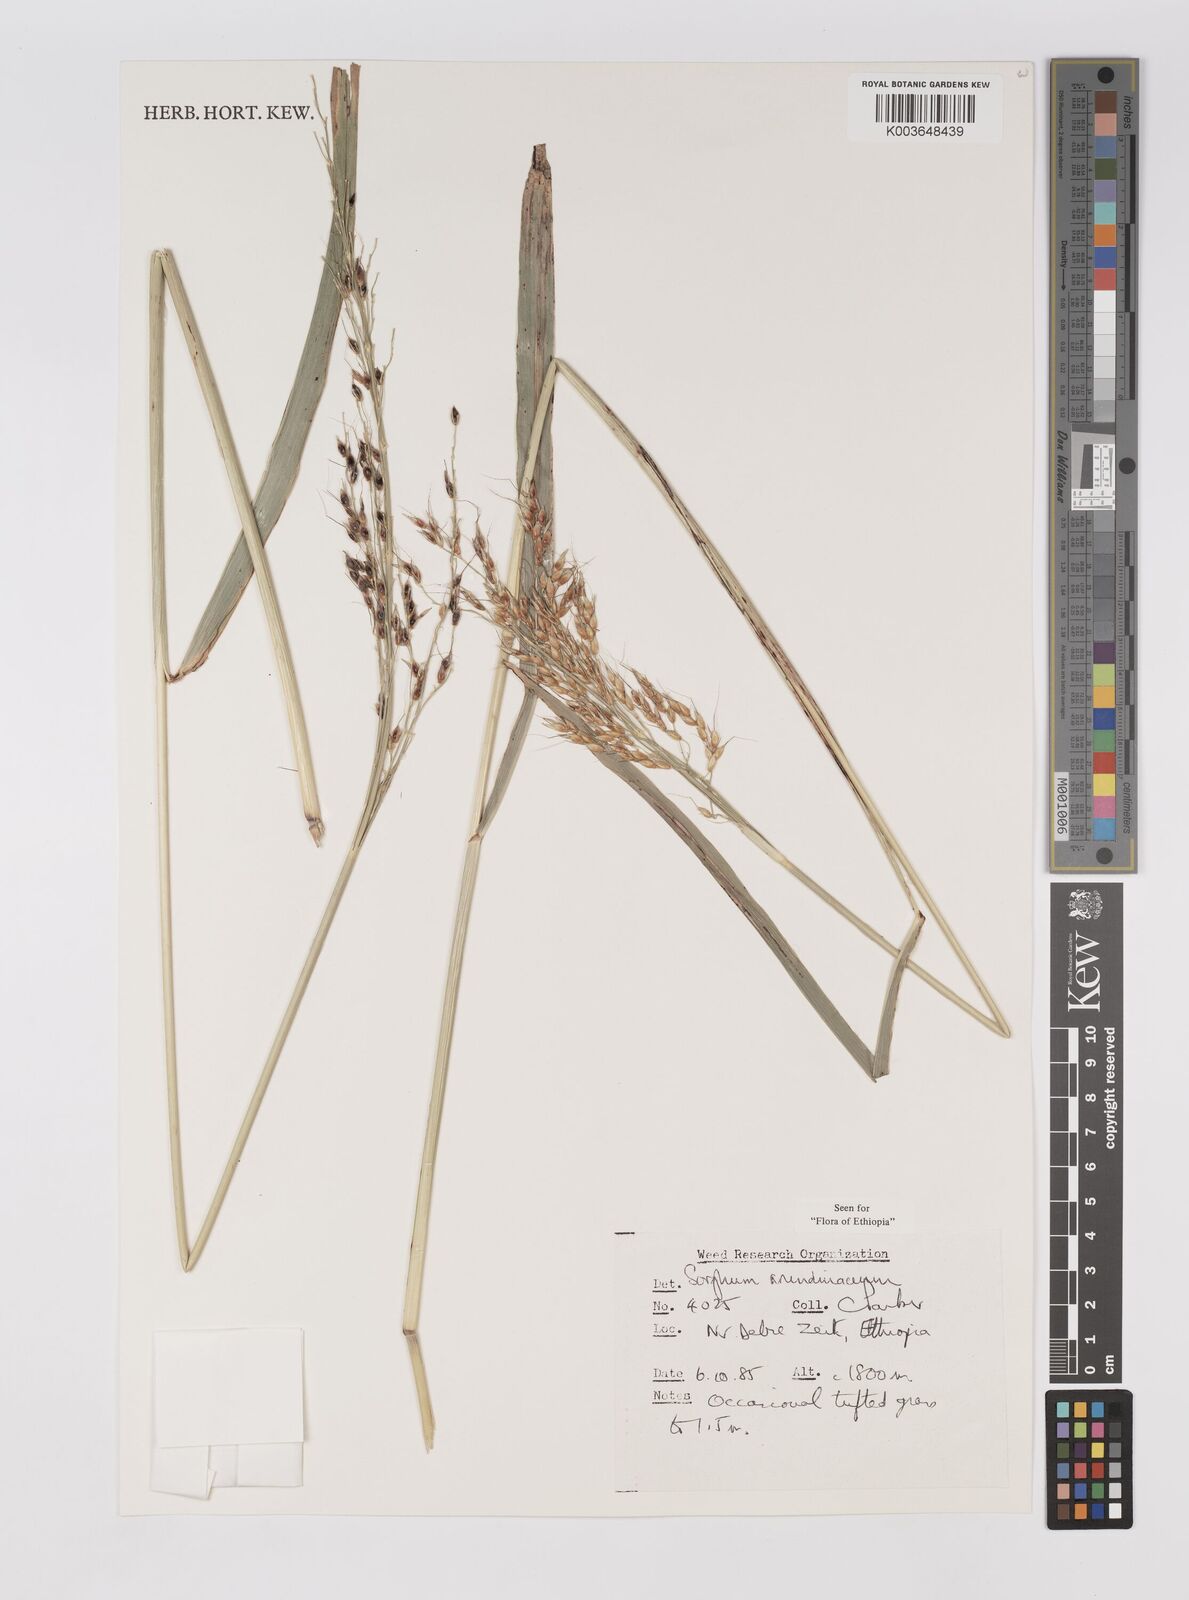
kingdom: Plantae
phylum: Tracheophyta
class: Liliopsida
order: Poales
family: Poaceae
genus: Sorghum
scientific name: Sorghum arundinaceum
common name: Sorghum
